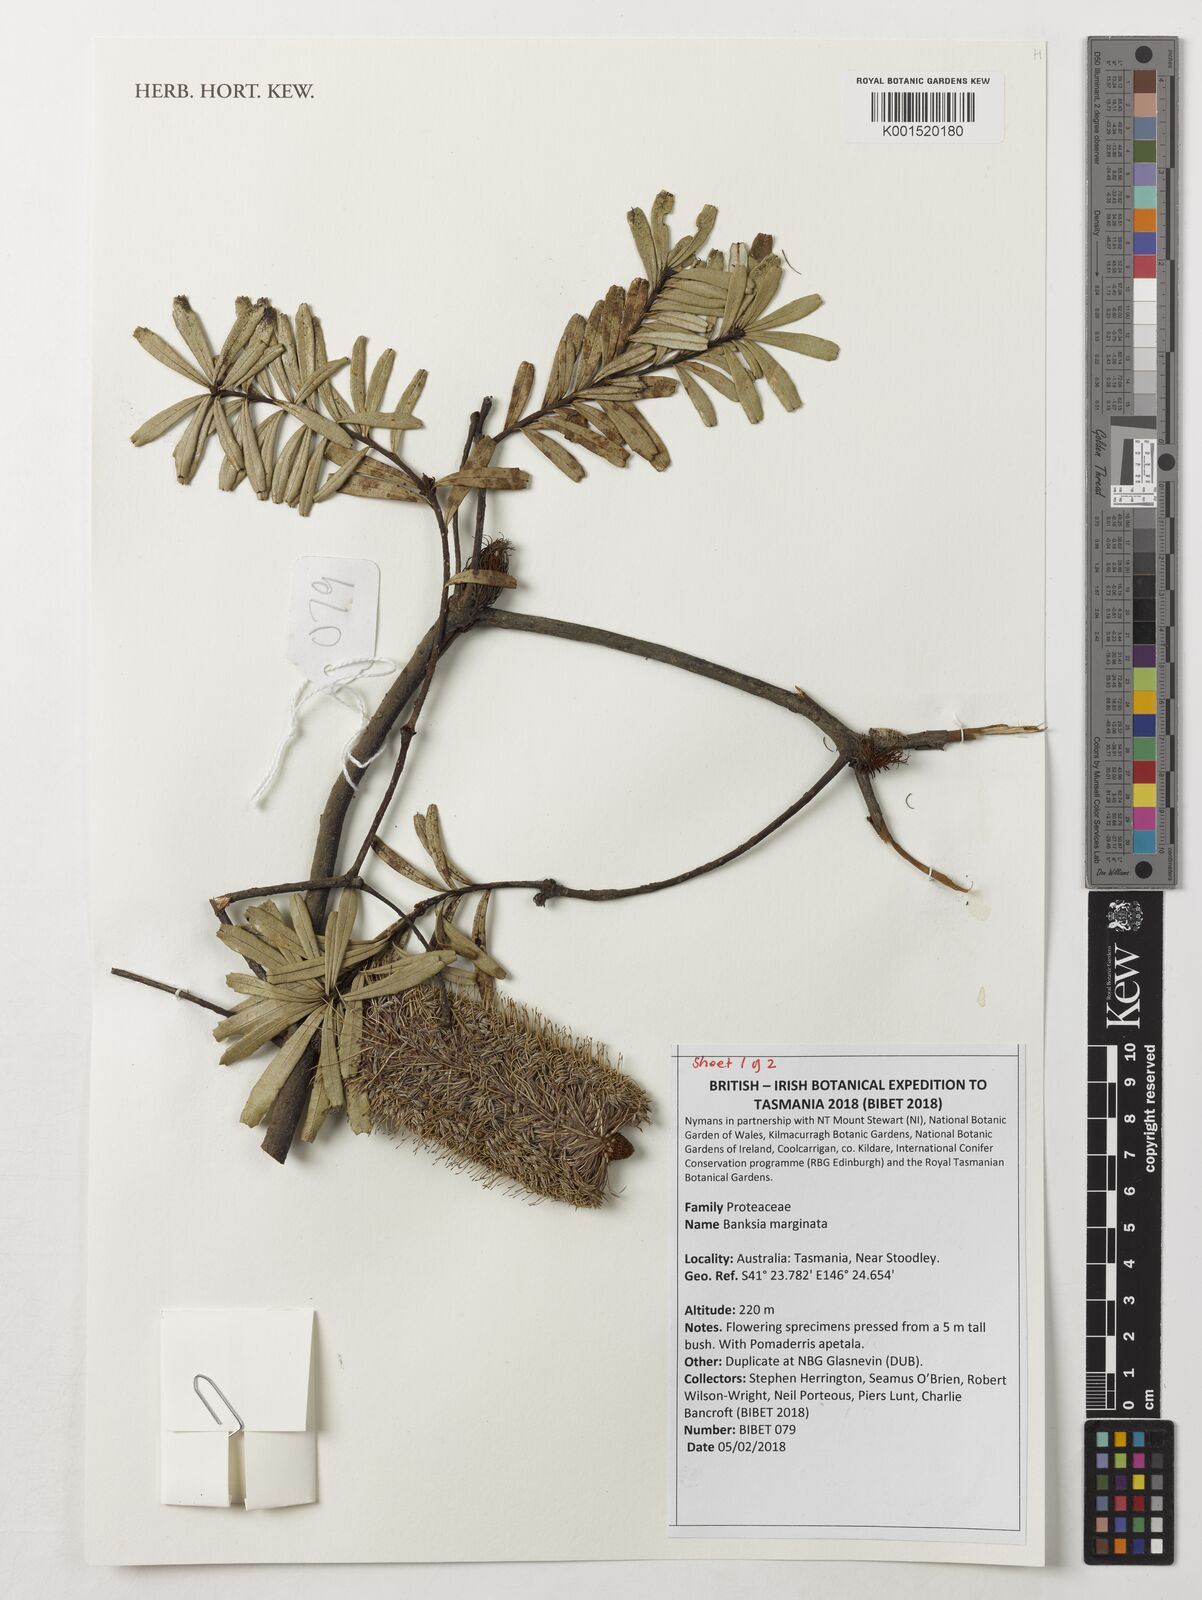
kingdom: Plantae
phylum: Tracheophyta
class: Magnoliopsida
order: Proteales
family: Proteaceae
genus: Banksia
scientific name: Banksia marginata
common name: Silver banksia
